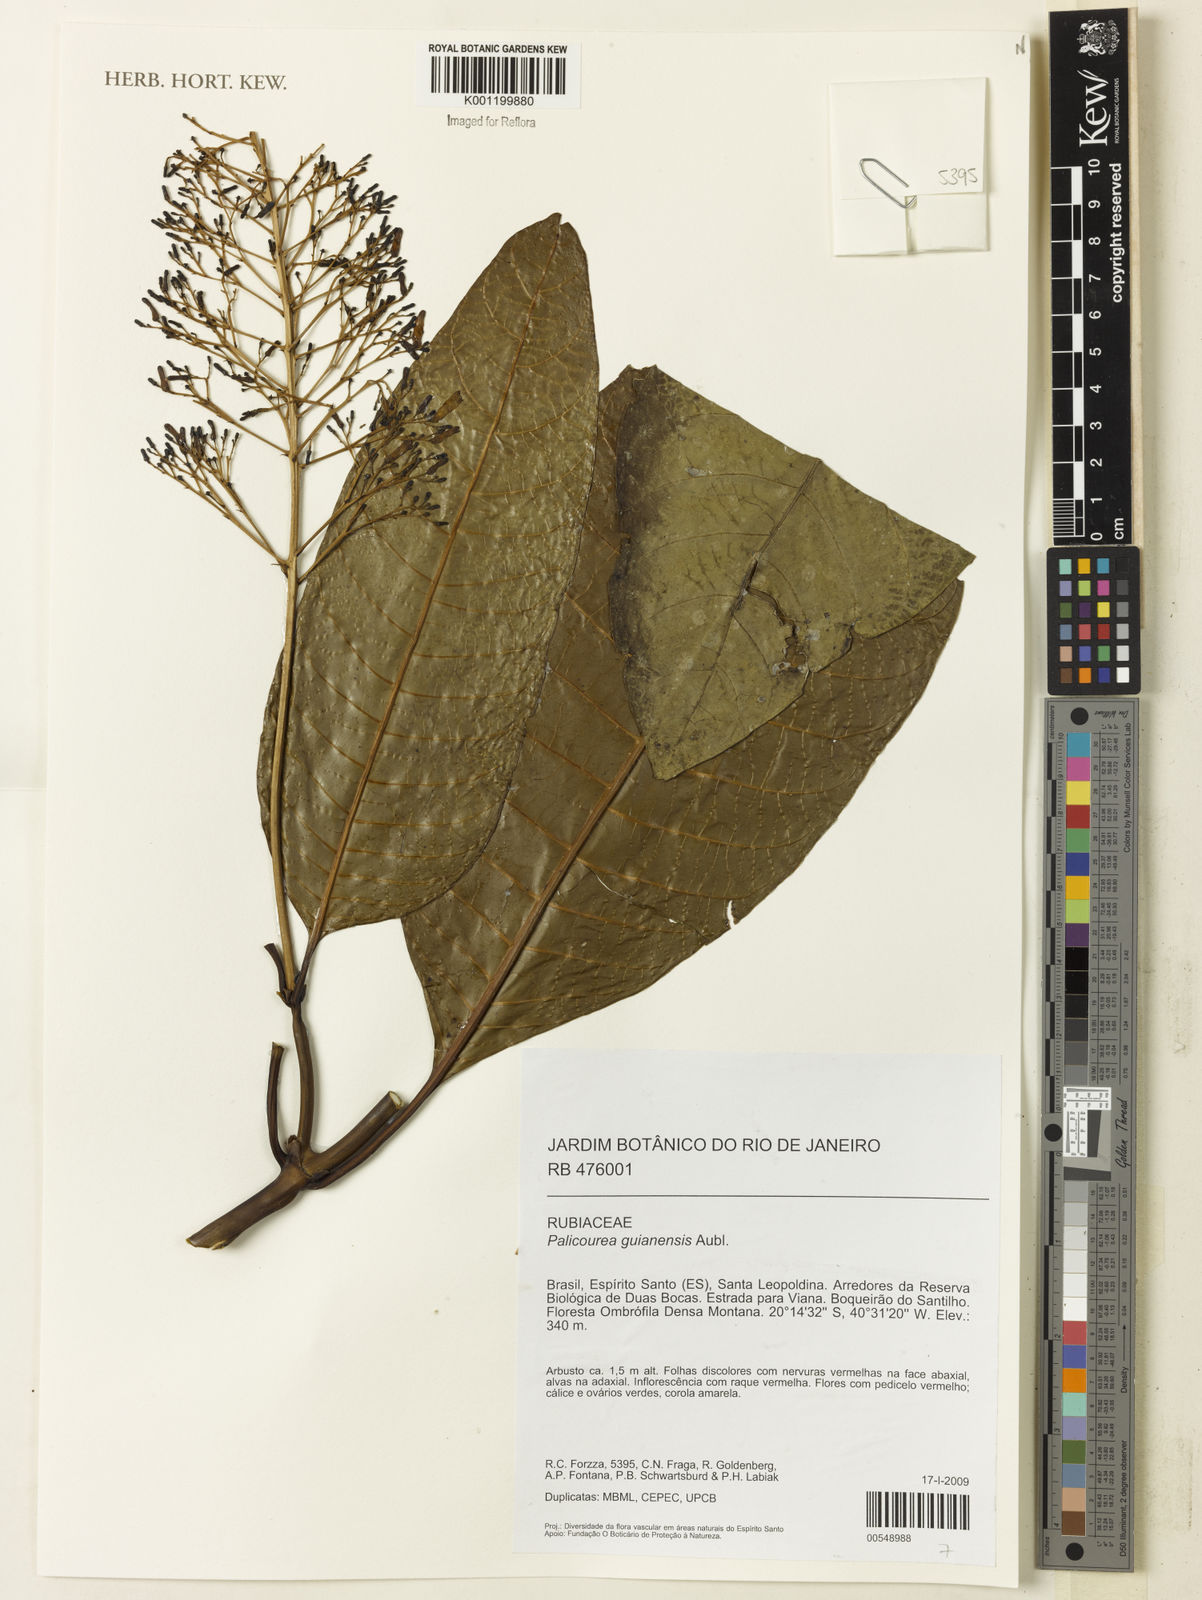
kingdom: Plantae
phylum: Tracheophyta
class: Magnoliopsida
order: Gentianales
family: Rubiaceae
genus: Palicourea
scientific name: Palicourea guianensis
